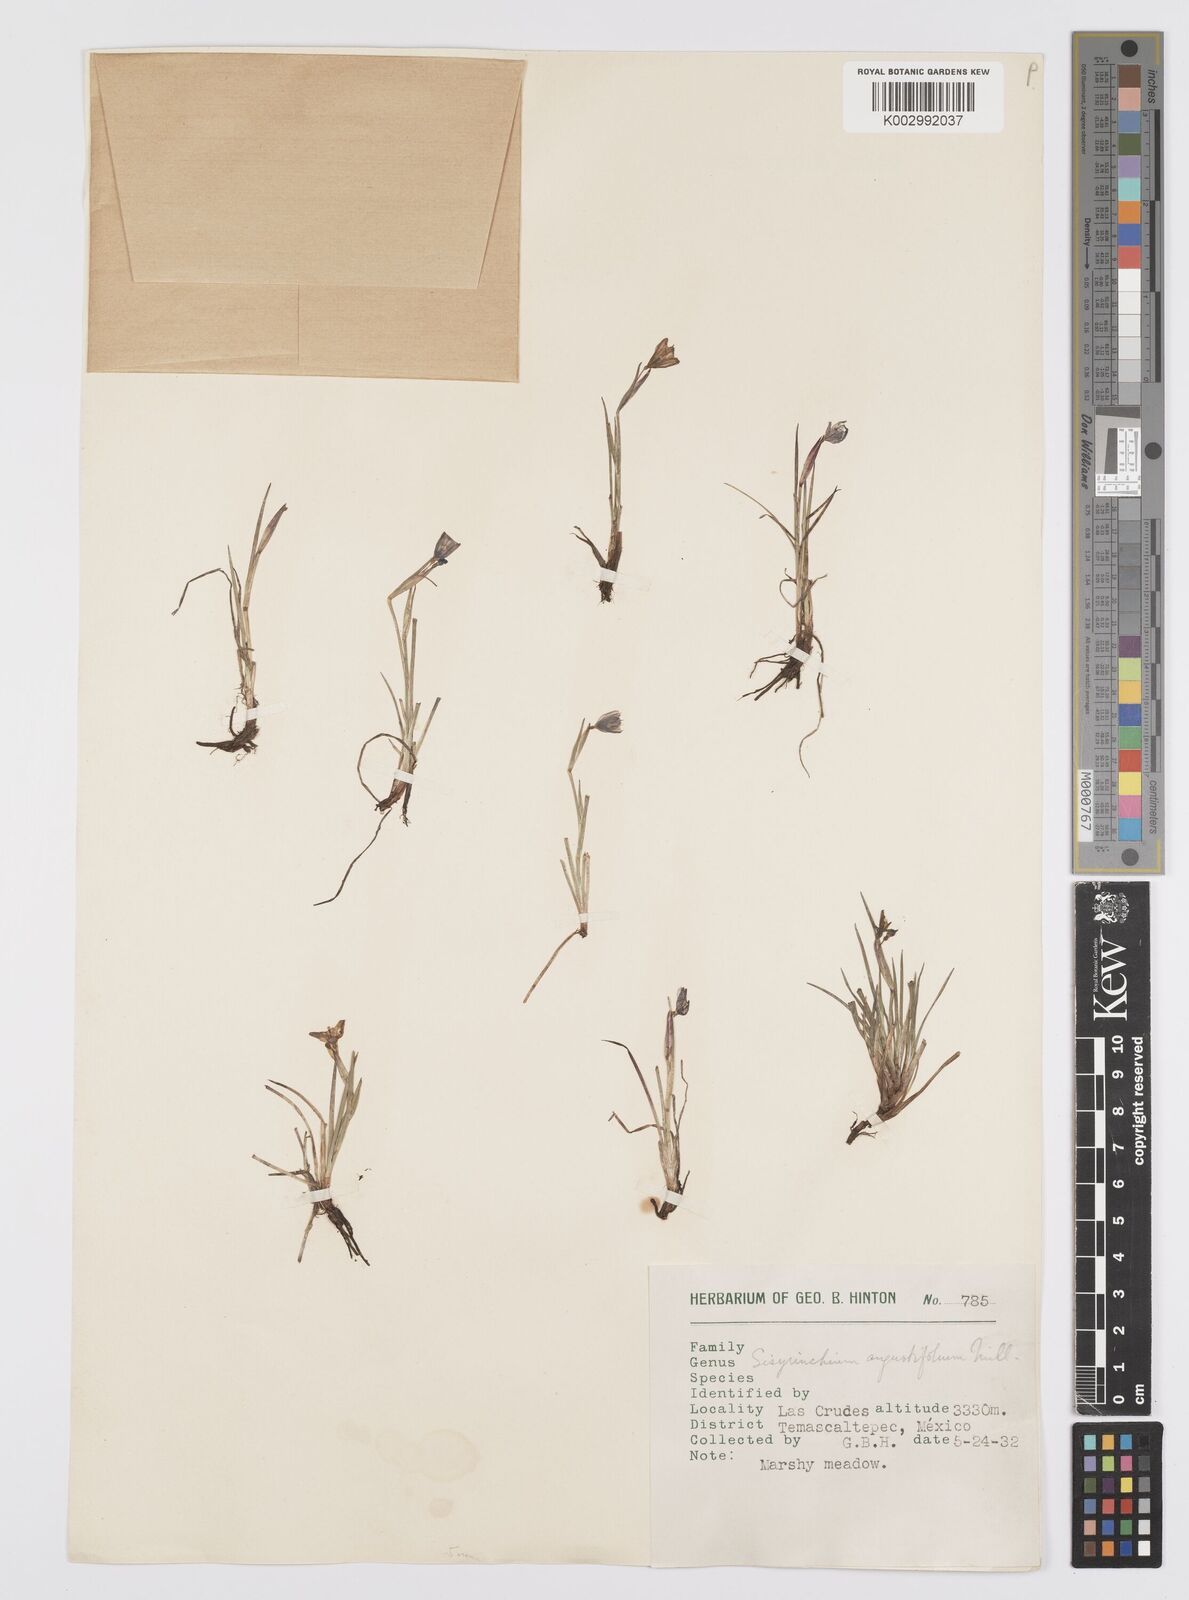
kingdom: Plantae
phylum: Tracheophyta
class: Liliopsida
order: Asparagales
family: Iridaceae
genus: Sisyrinchium
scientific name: Sisyrinchium angustifolium
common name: Narrow-leaf blue-eyed-grass
